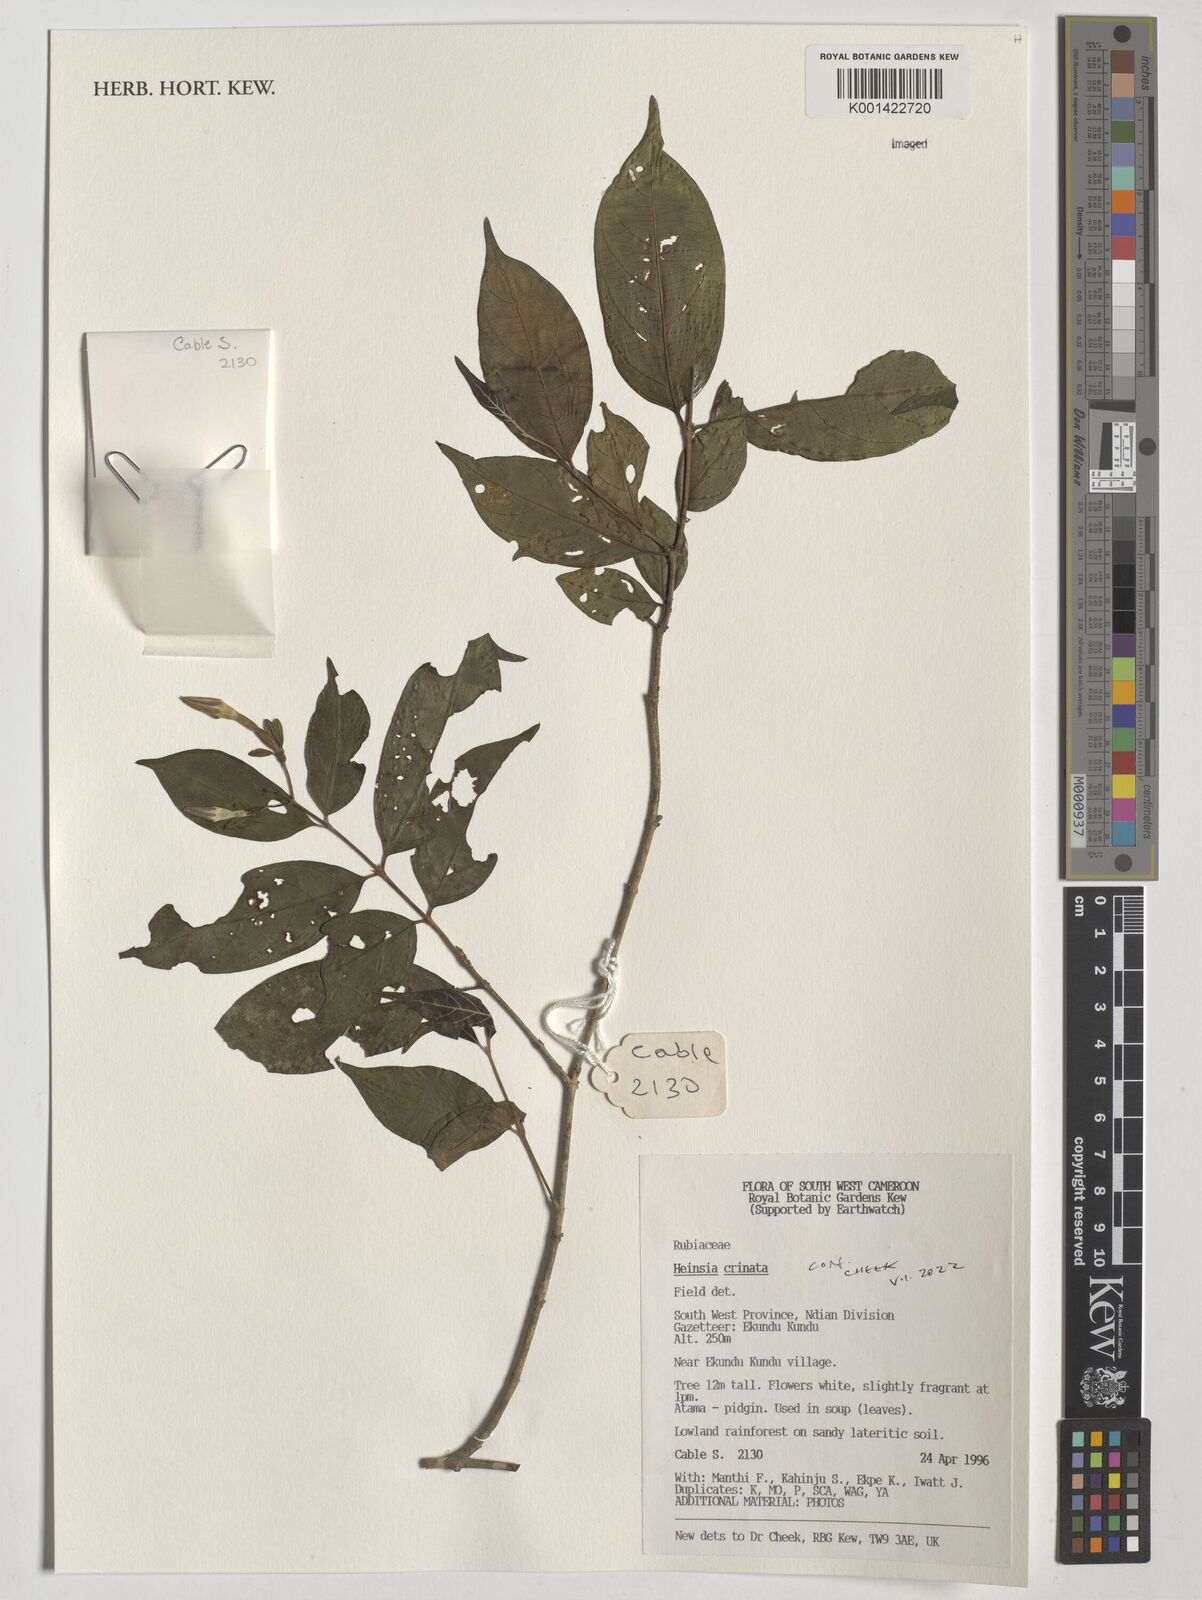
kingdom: Plantae
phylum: Tracheophyta
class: Magnoliopsida
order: Gentianales
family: Rubiaceae
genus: Heinsia
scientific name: Heinsia crinita
